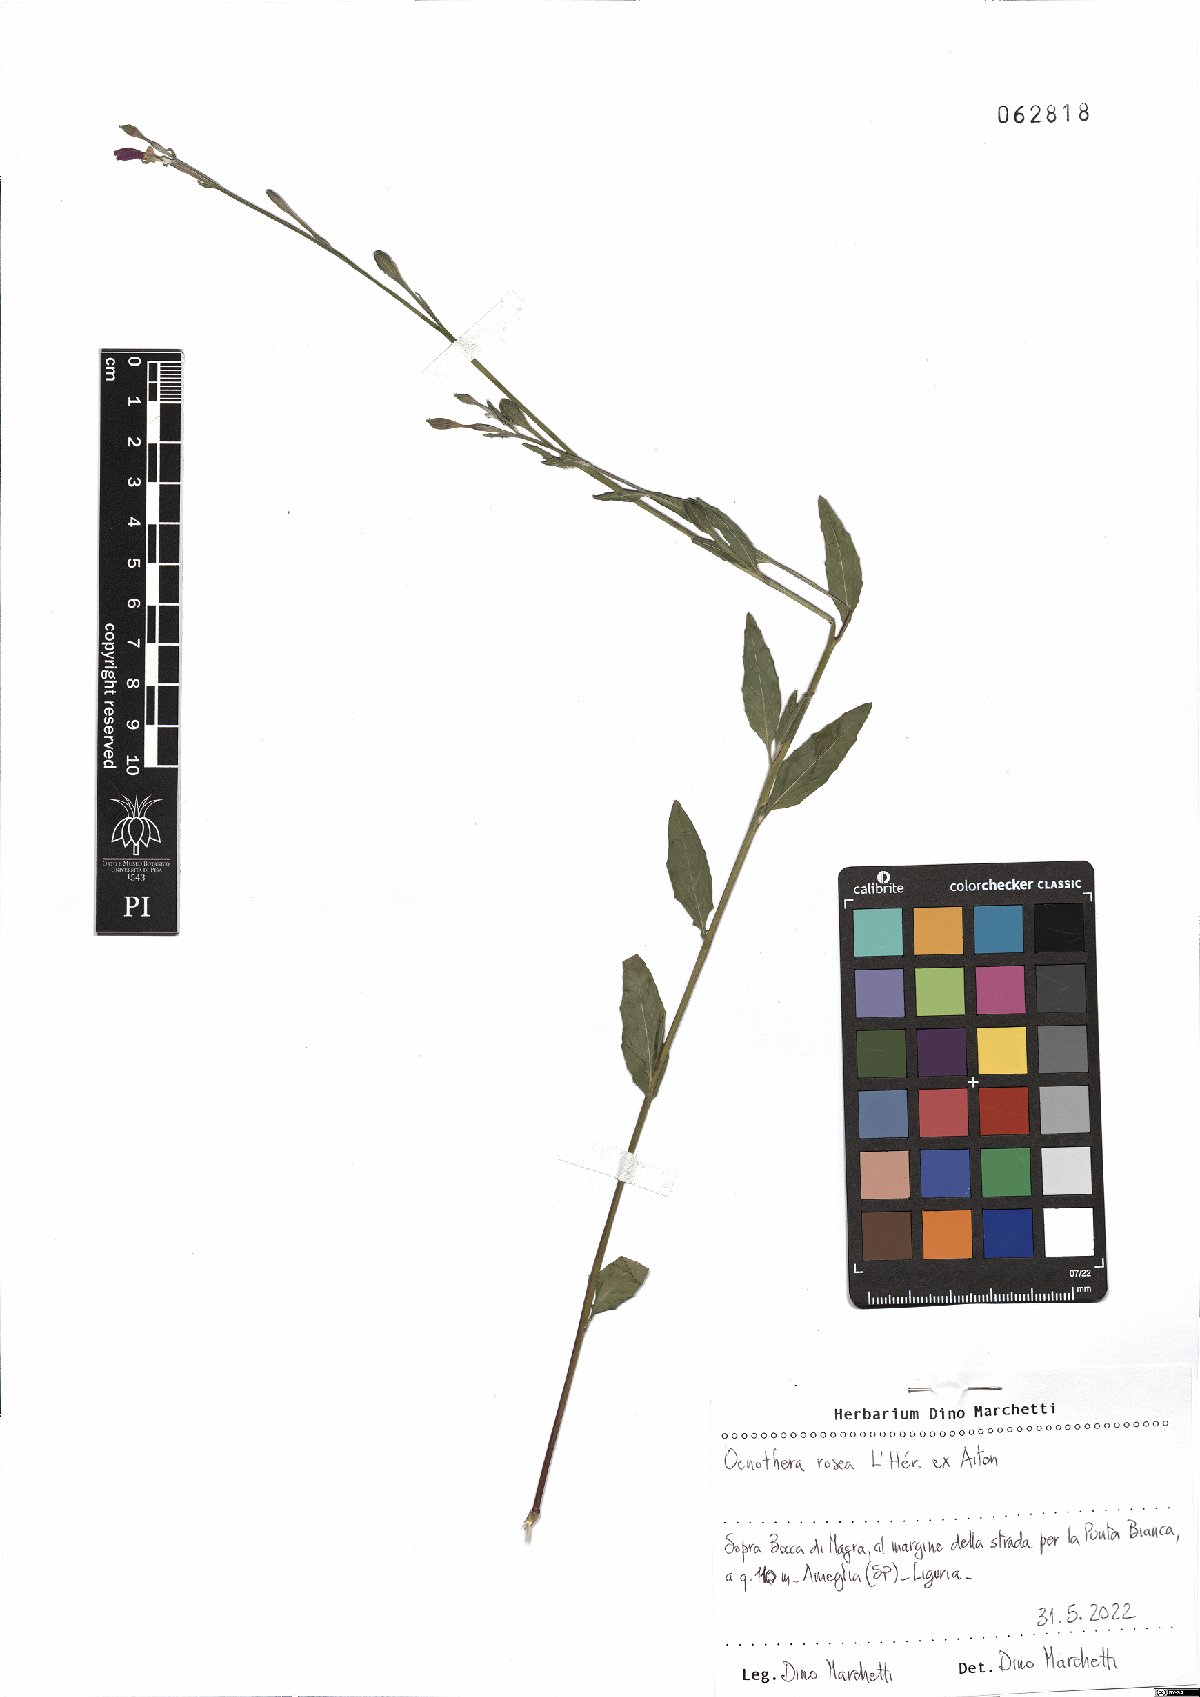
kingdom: Plantae
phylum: Tracheophyta
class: Magnoliopsida
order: Myrtales
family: Onagraceae
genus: Oenothera
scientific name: Oenothera rosea
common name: Rosy evening-primrose
